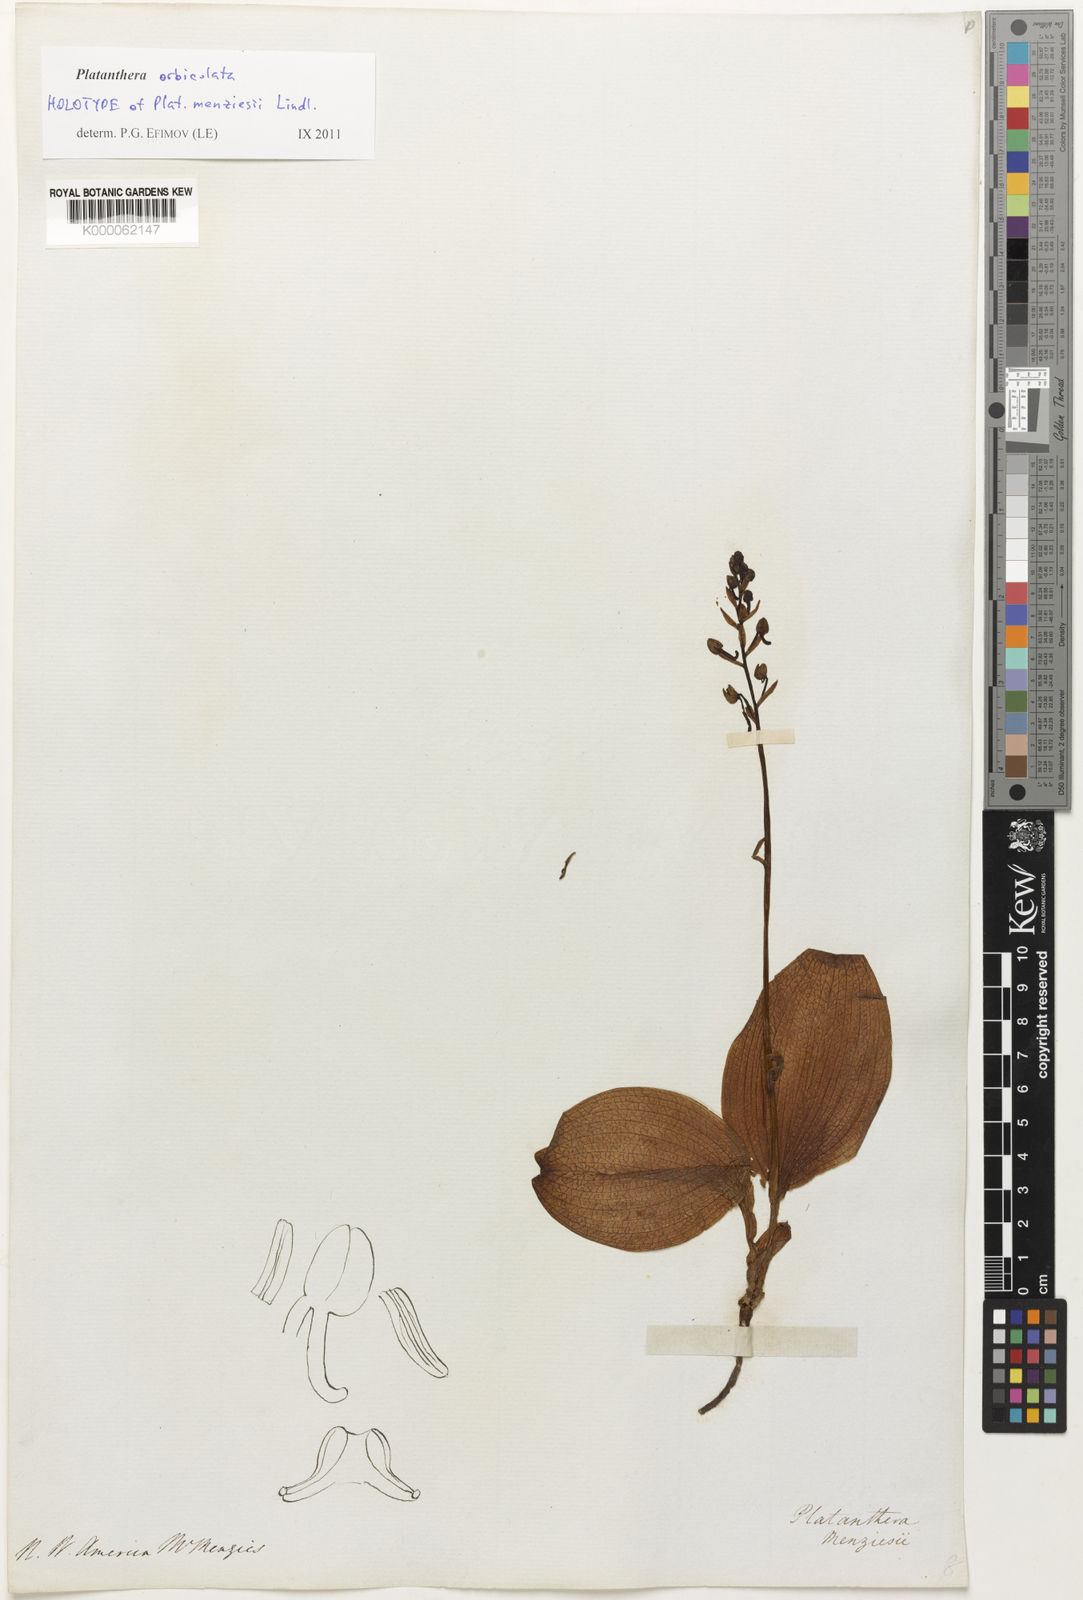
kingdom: Plantae
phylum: Tracheophyta
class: Liliopsida
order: Asparagales
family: Orchidaceae
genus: Platanthera
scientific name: Platanthera orbiculata
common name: Large round-leaved orchid
